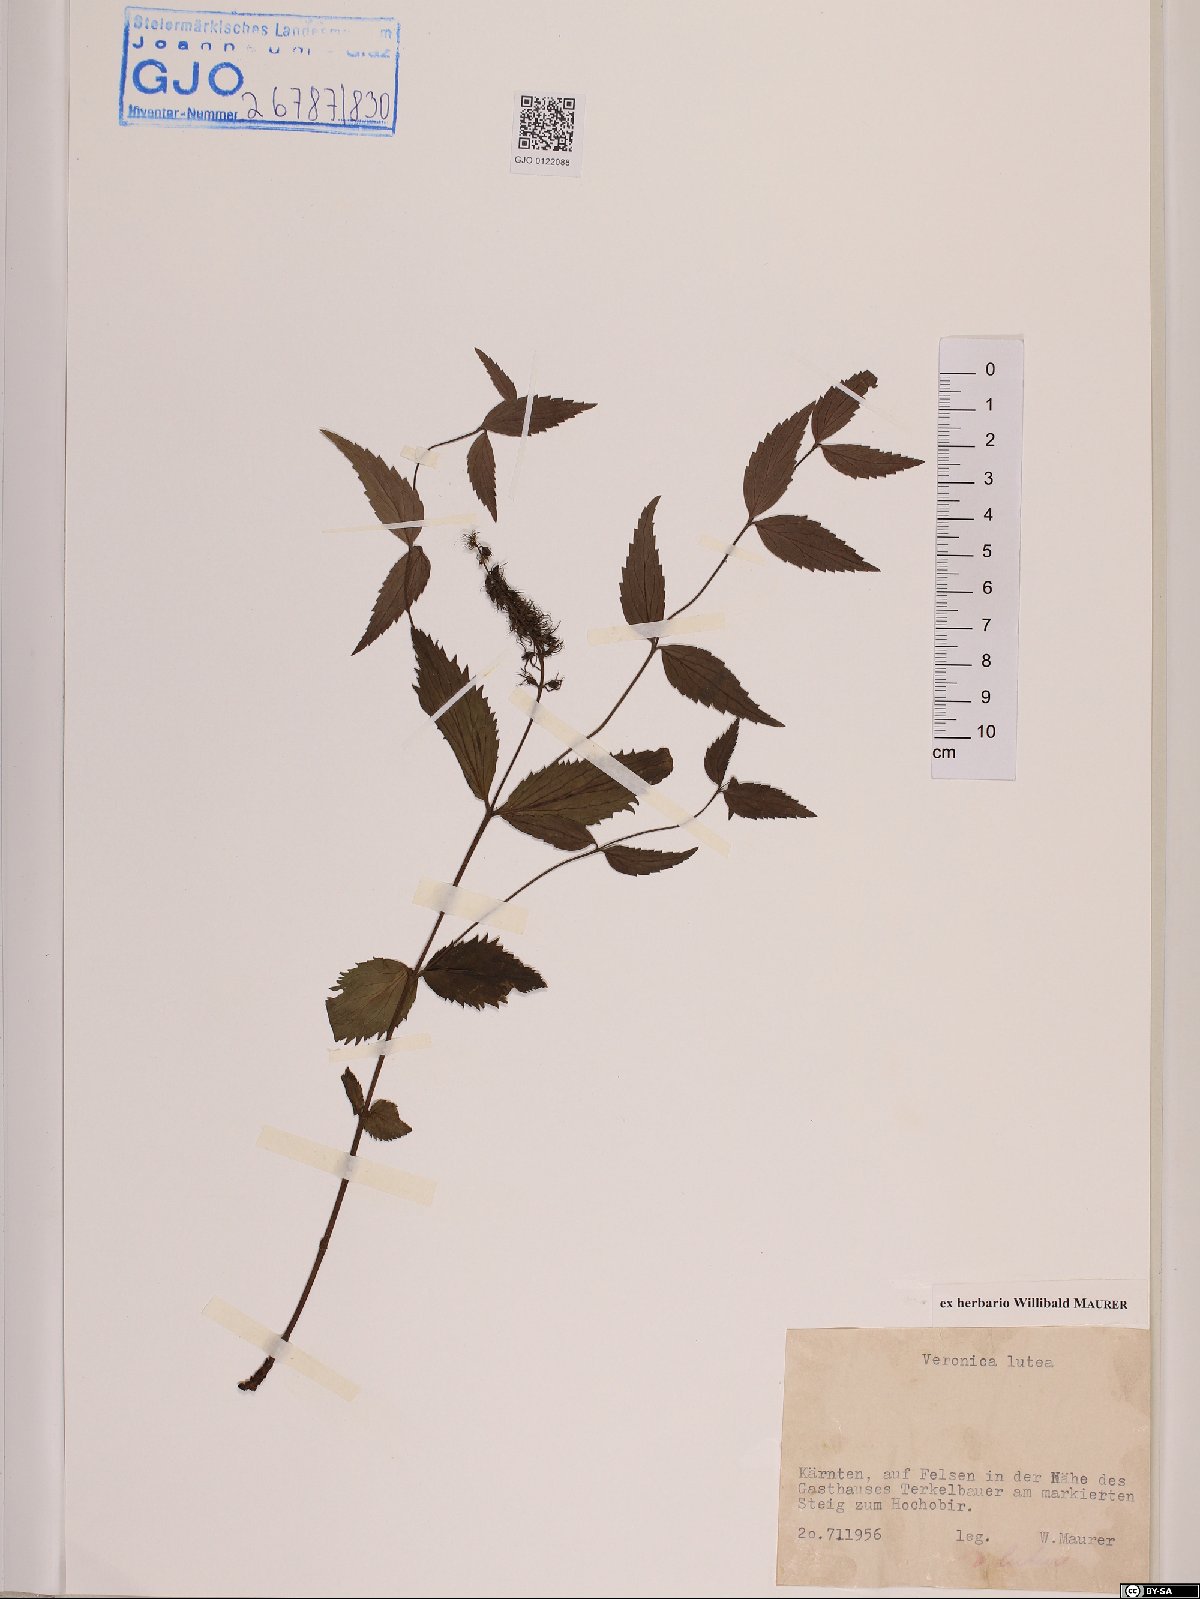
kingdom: Plantae
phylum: Tracheophyta
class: Magnoliopsida
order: Lamiales
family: Plantaginaceae
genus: Paederota
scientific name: Paederota lutea
